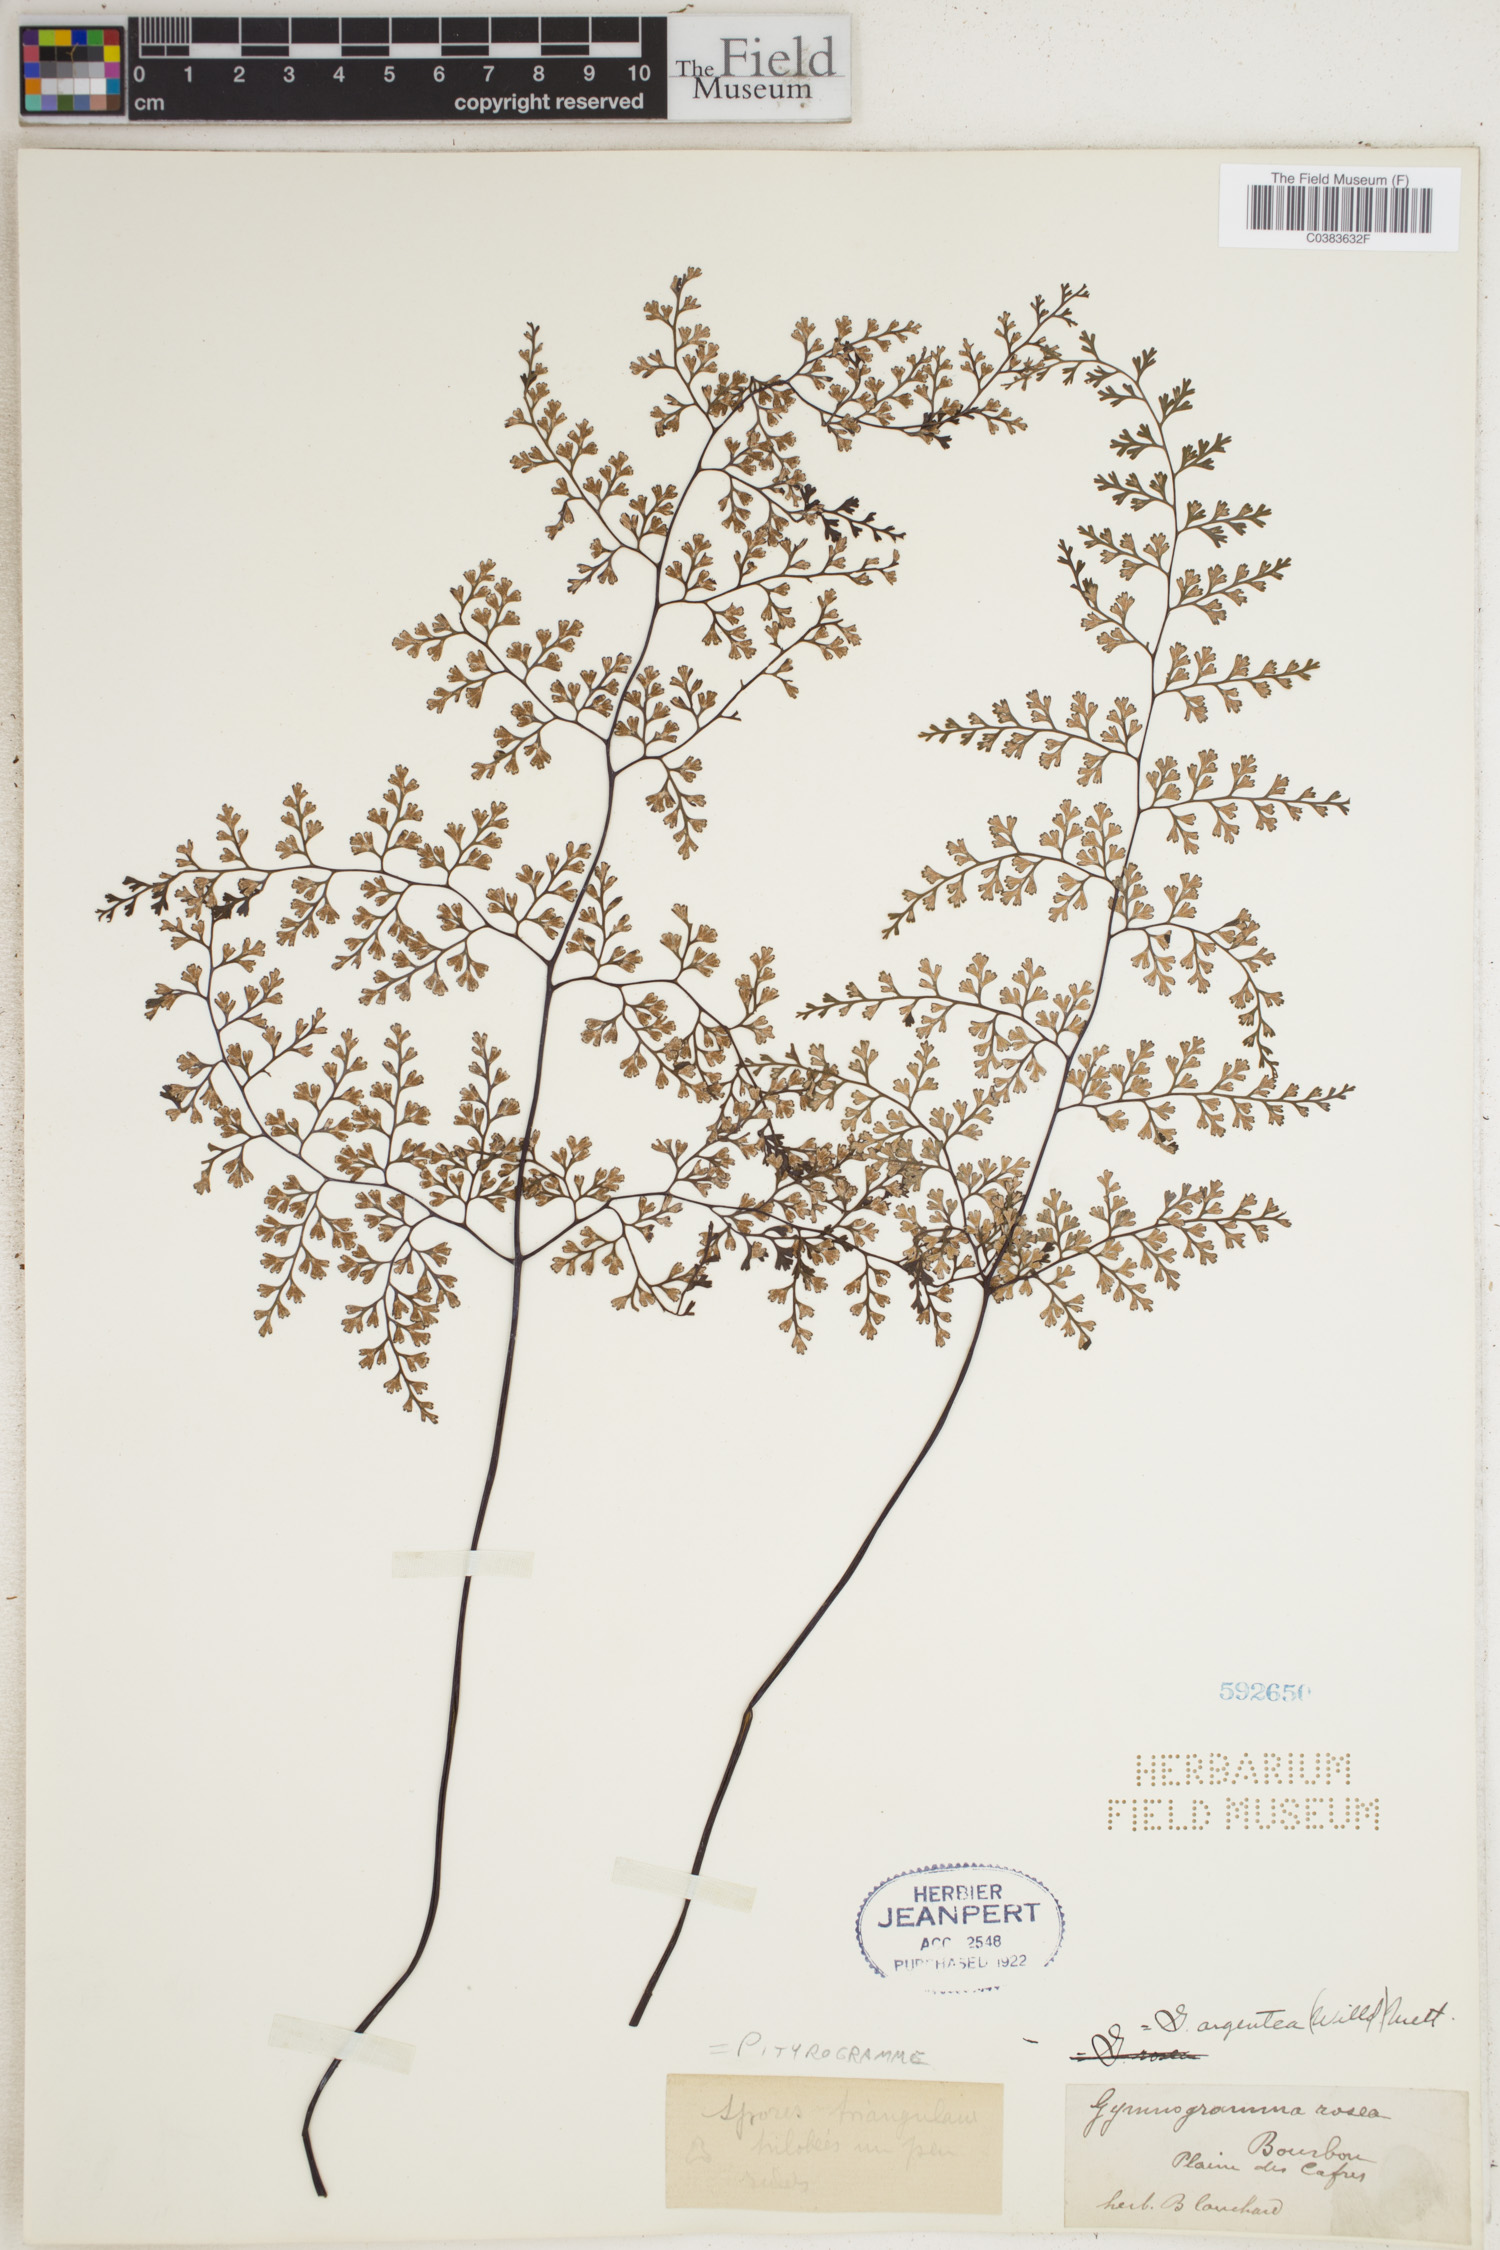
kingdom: Plantae
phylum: Tracheophyta
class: Polypodiopsida
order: Polypodiales
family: Pteridaceae
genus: Cerosora
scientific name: Cerosora argentea
